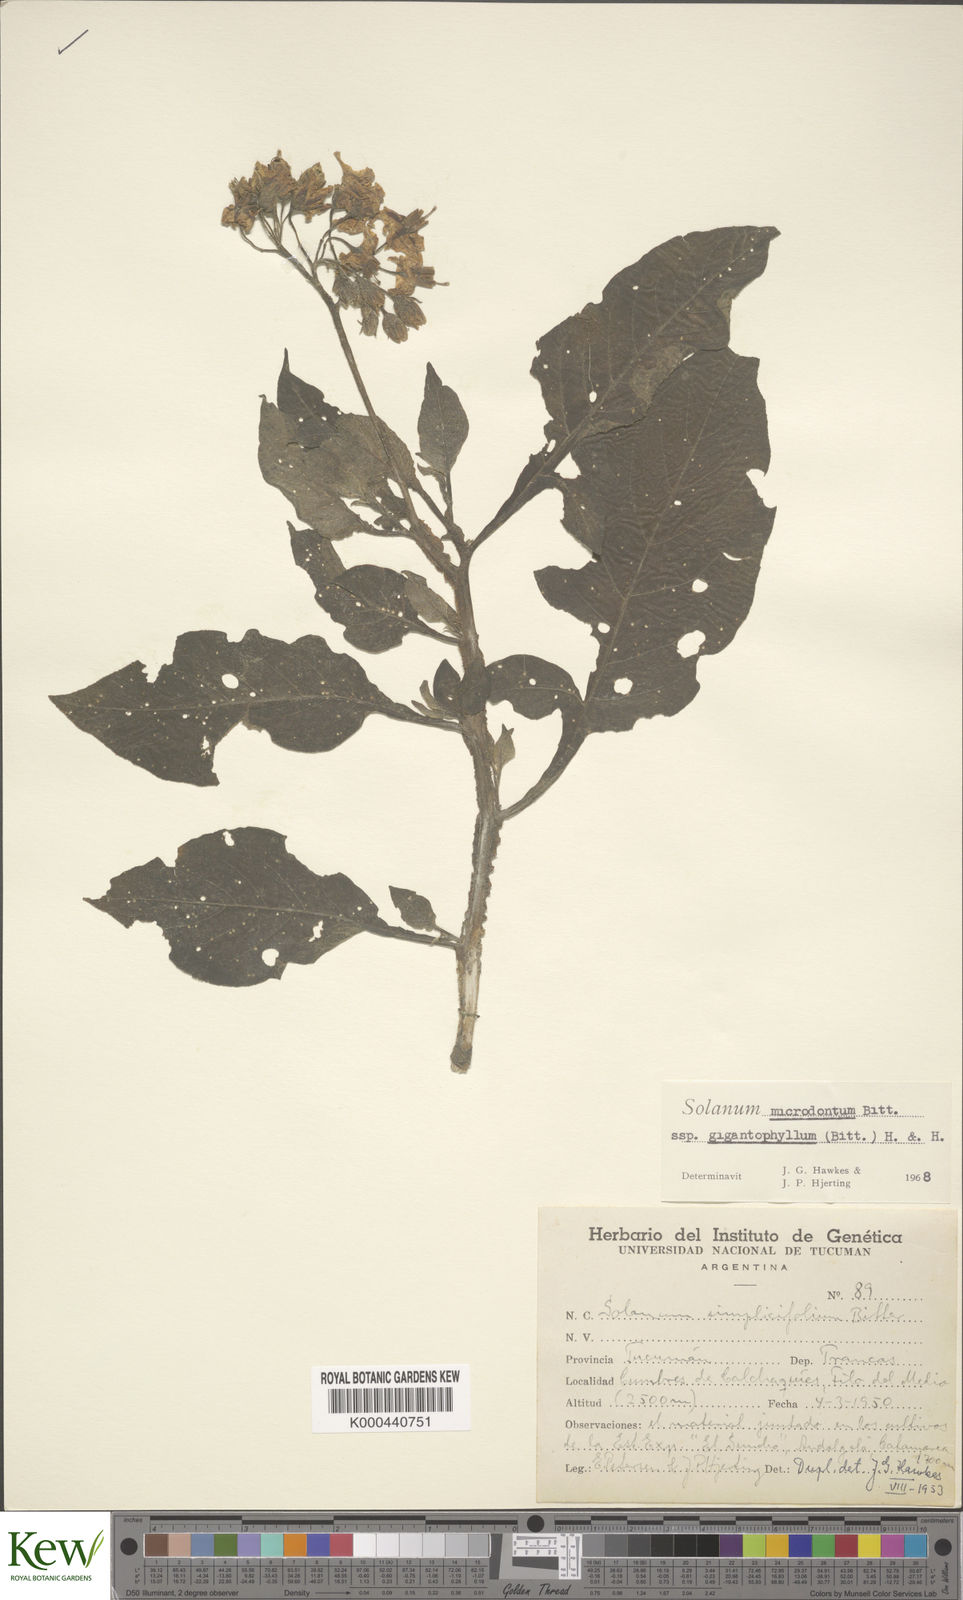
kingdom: Plantae
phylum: Tracheophyta
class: Magnoliopsida
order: Solanales
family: Solanaceae
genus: Solanum
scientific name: Solanum microdontum
